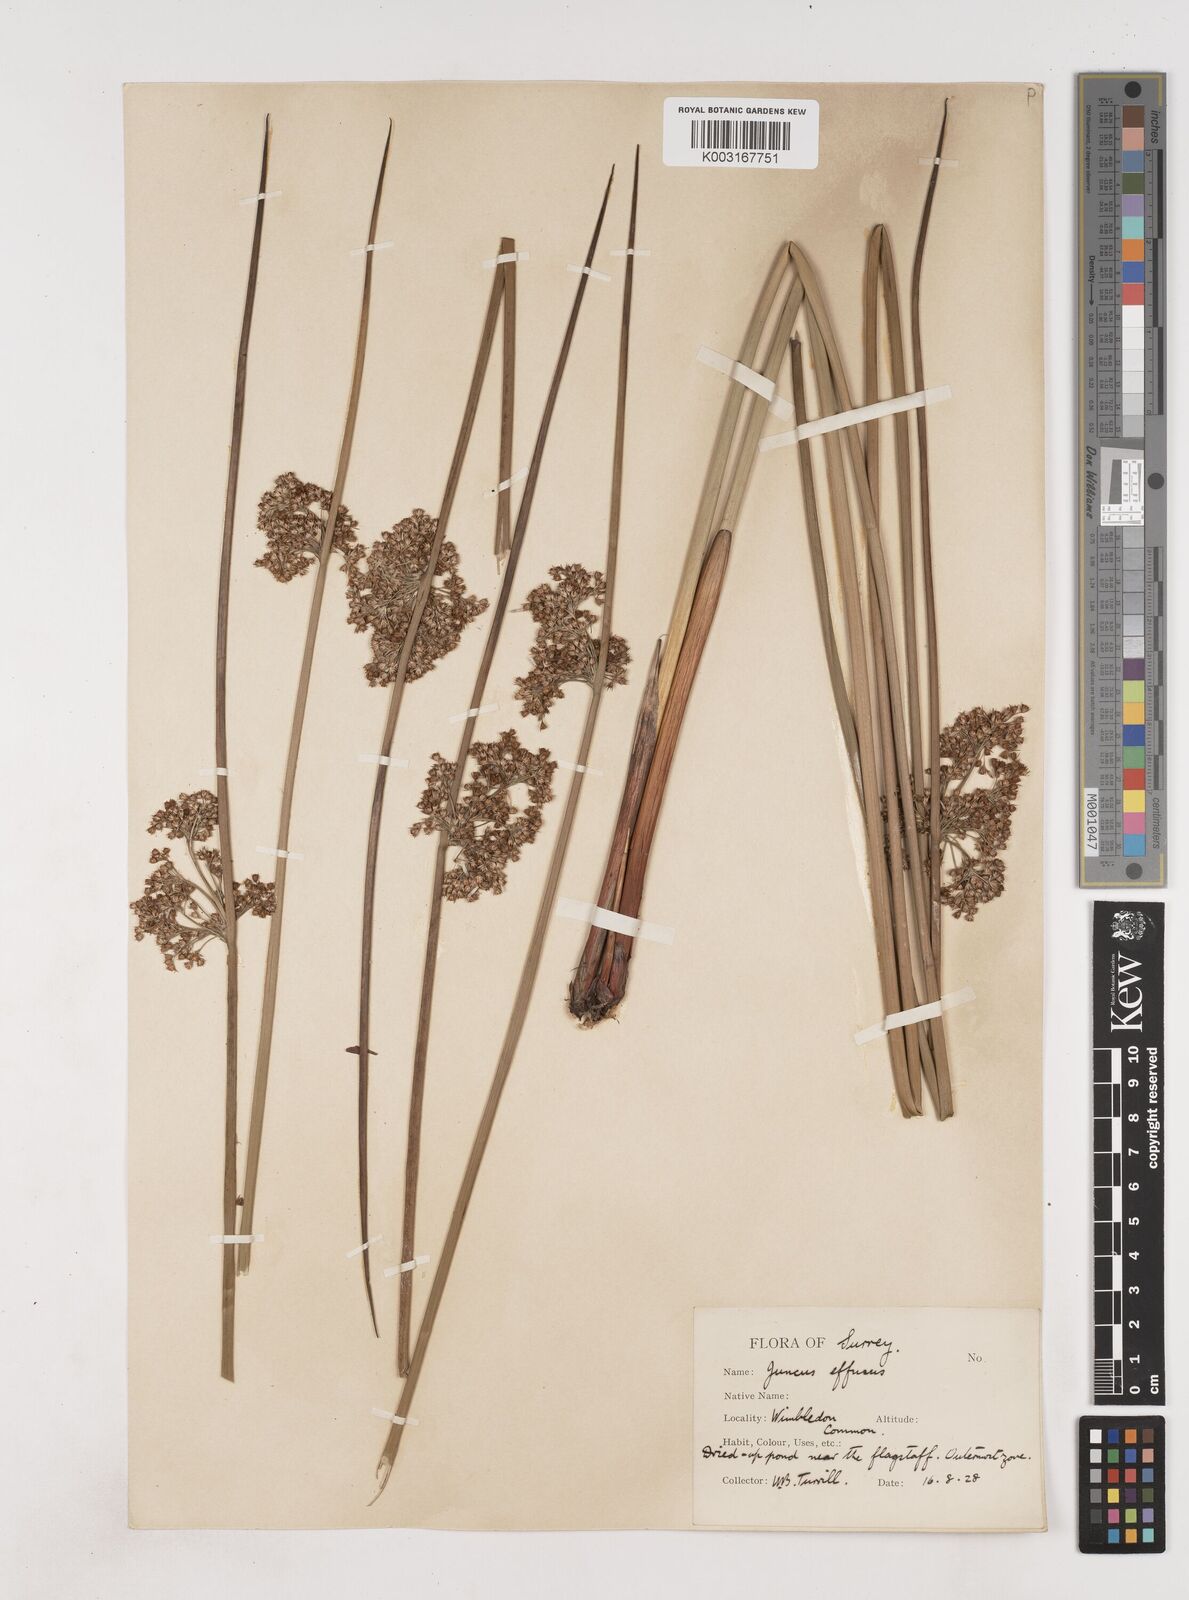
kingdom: Plantae
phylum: Tracheophyta
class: Liliopsida
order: Poales
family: Juncaceae
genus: Juncus
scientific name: Juncus effusus
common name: Soft rush
